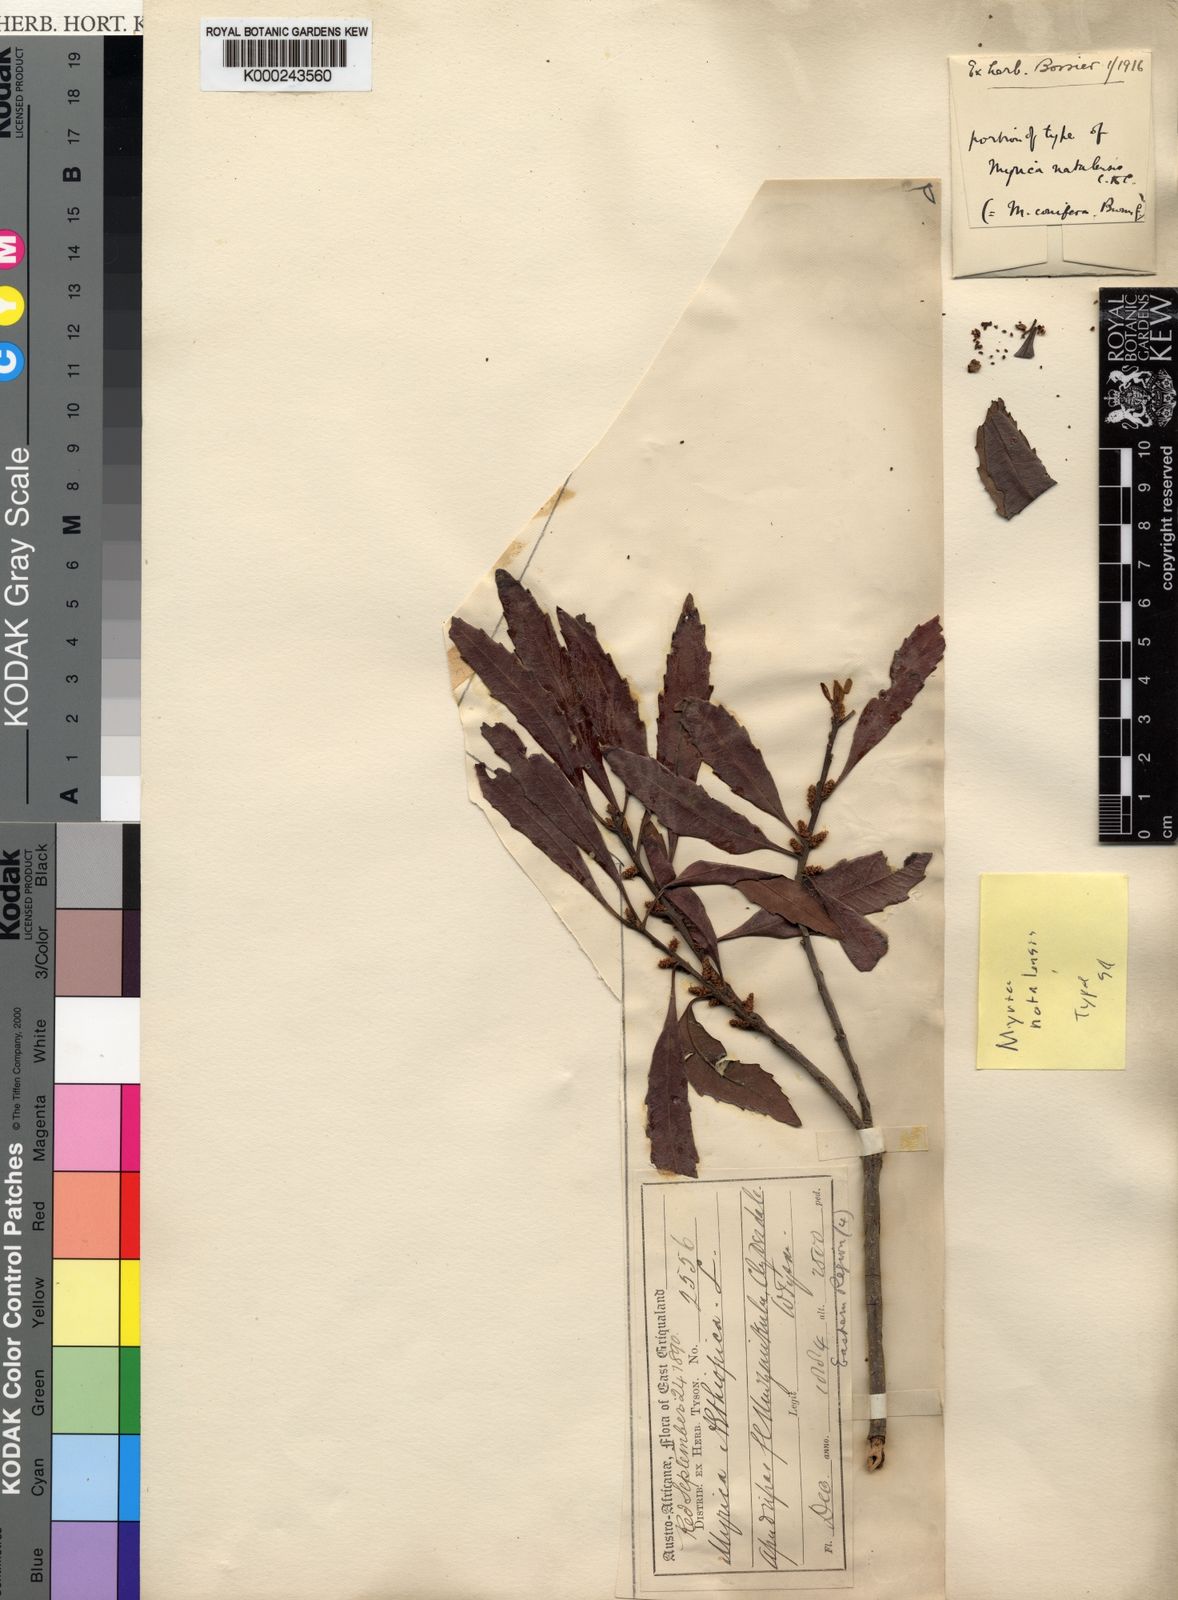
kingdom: Plantae
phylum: Tracheophyta
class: Magnoliopsida
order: Fagales
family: Myricaceae
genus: Morella
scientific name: Morella serrata
